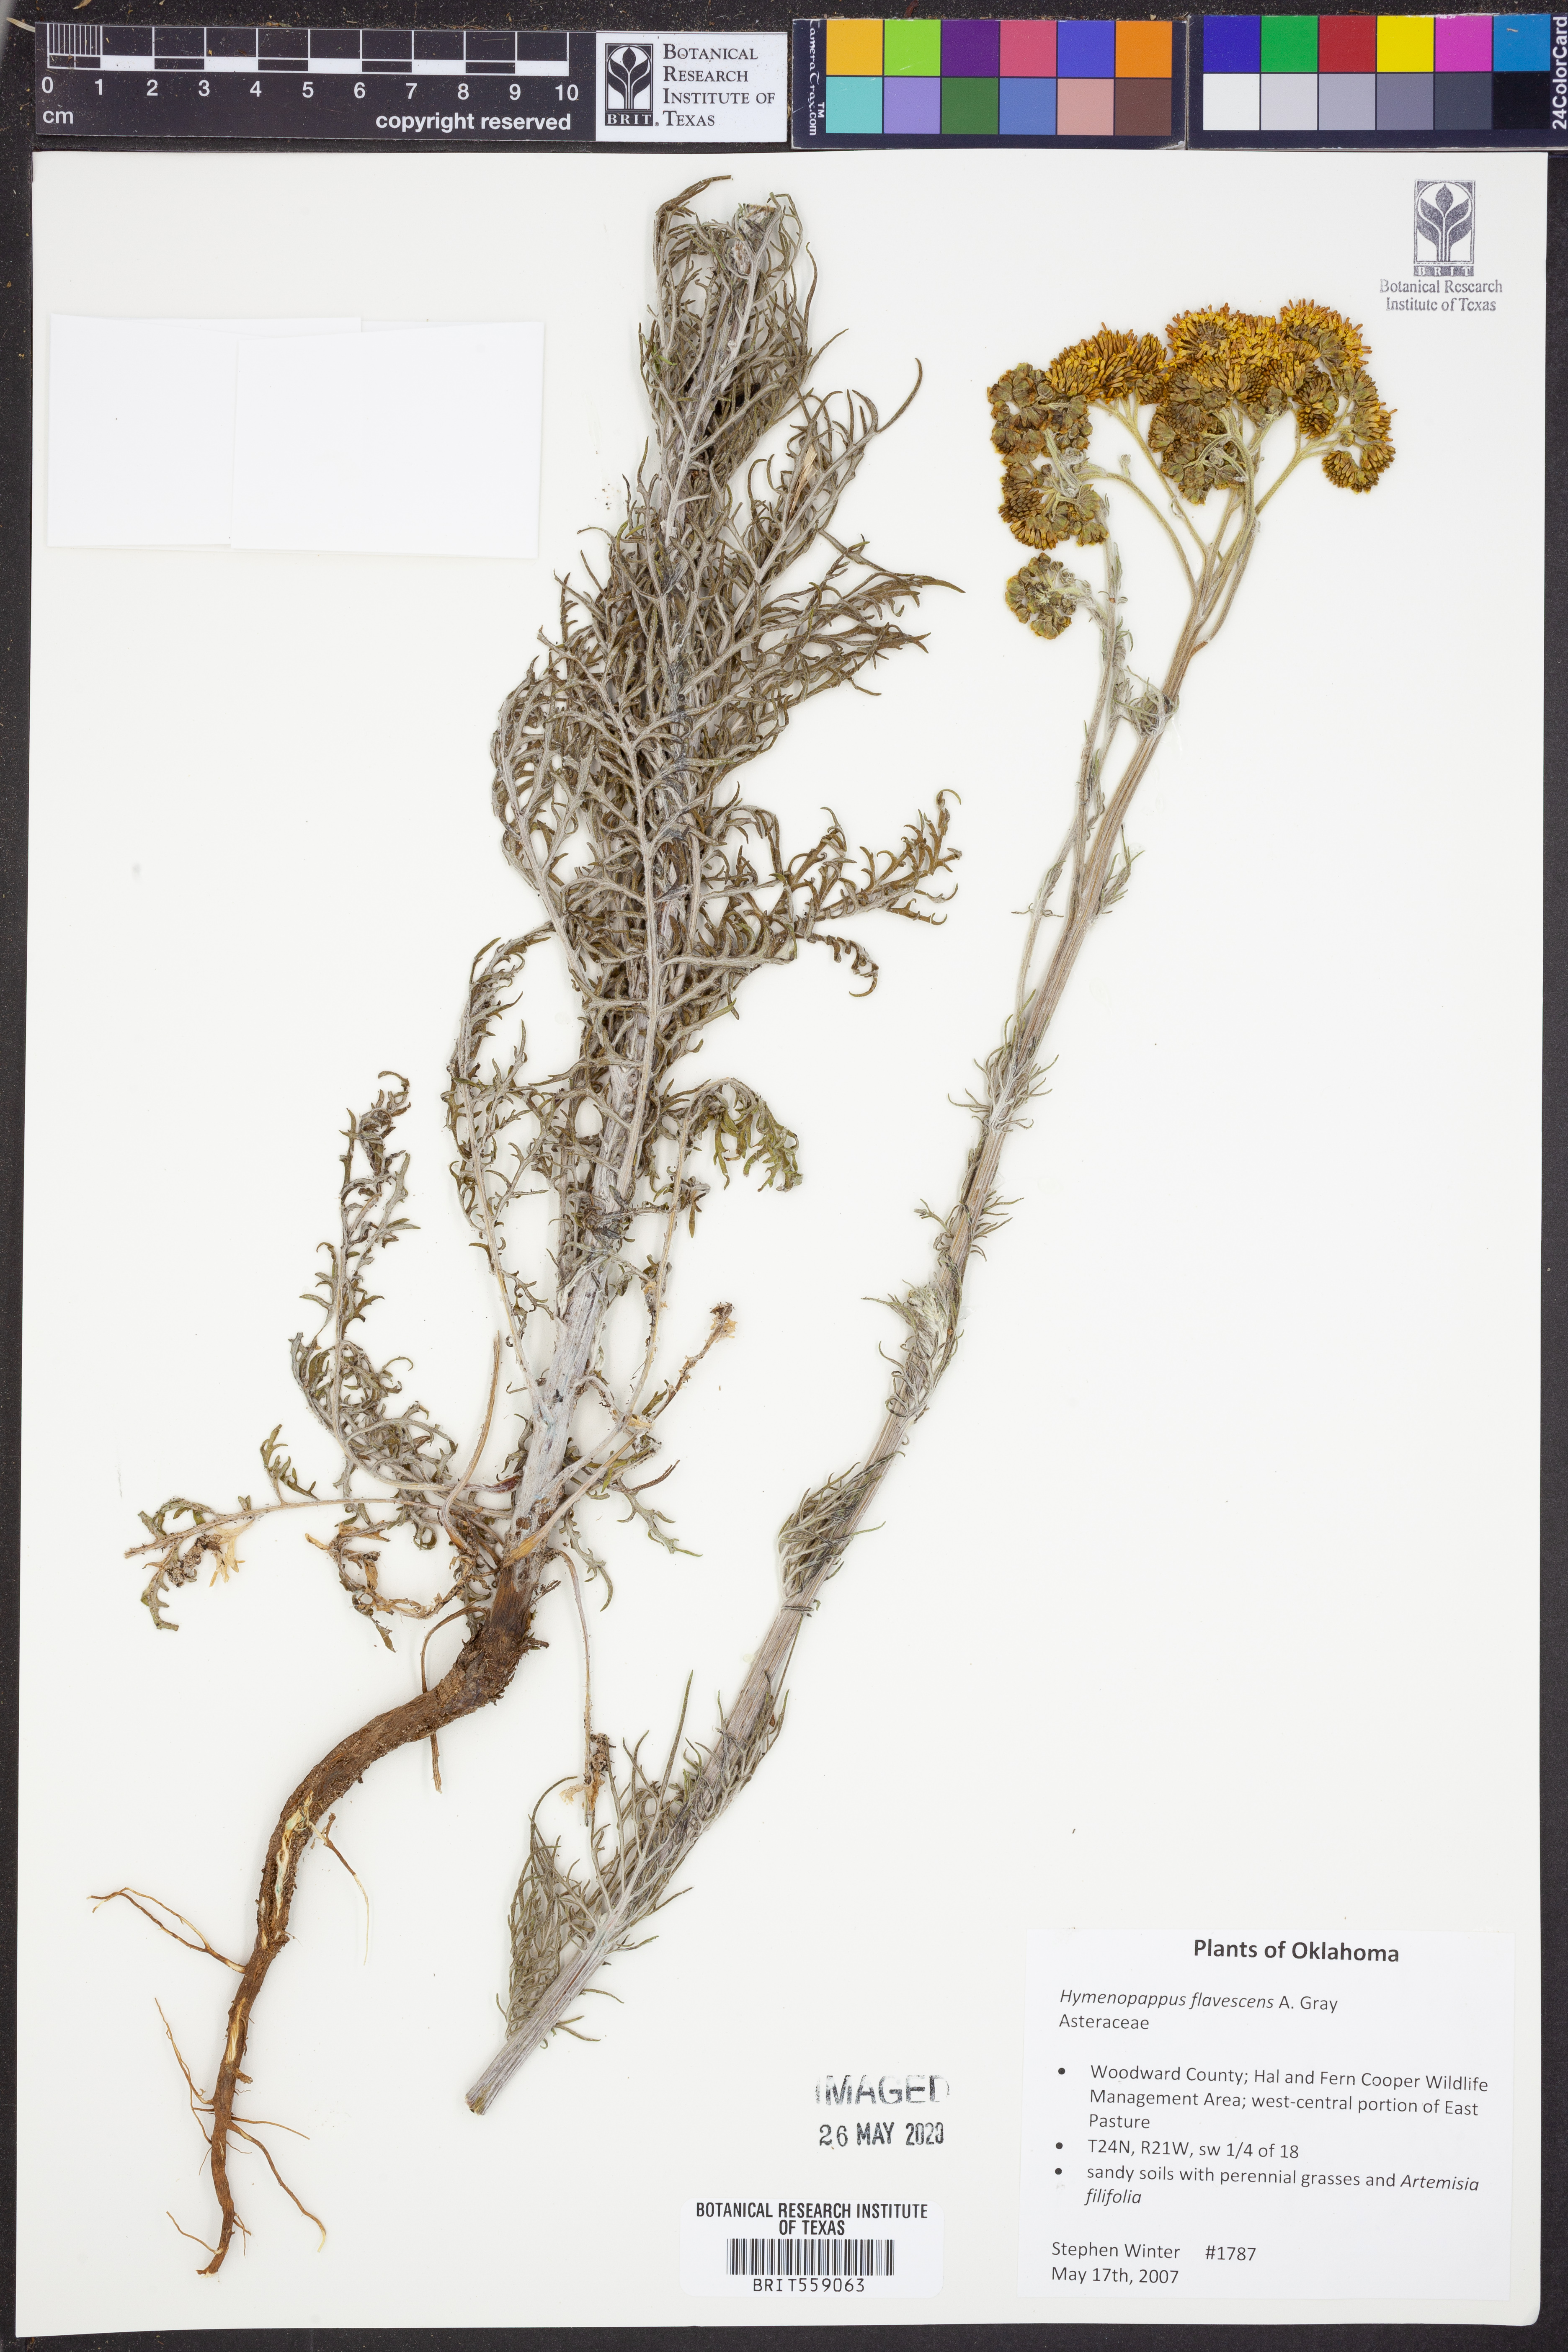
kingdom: Plantae
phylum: Tracheophyta
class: Magnoliopsida
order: Asterales
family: Asteraceae
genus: Hymenopappus
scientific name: Hymenopappus flavescens
